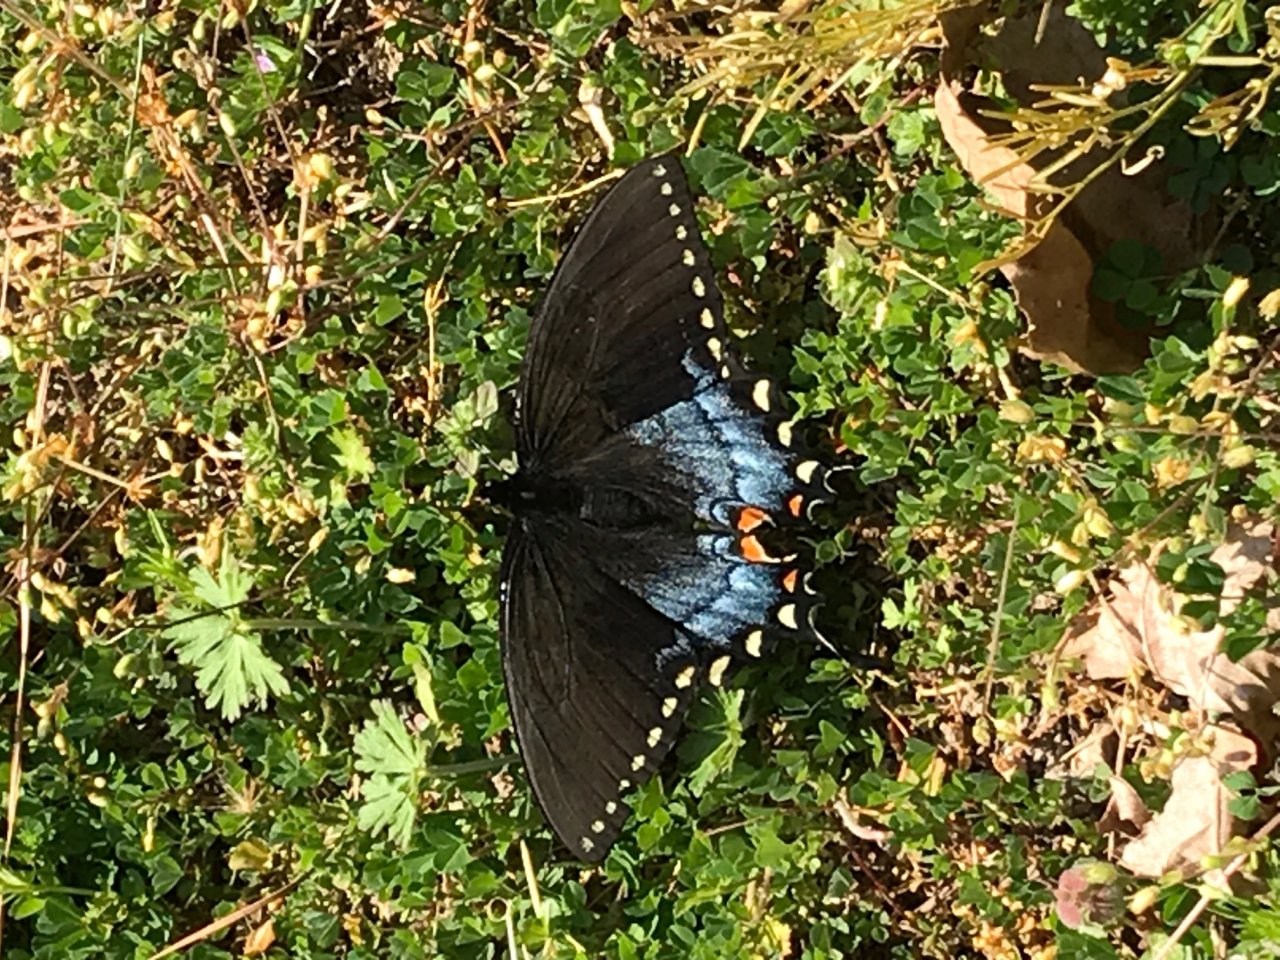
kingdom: Animalia
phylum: Arthropoda
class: Insecta
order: Lepidoptera
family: Papilionidae
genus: Pterourus
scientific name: Pterourus glaucus
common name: Eastern Tiger Swallowtail
